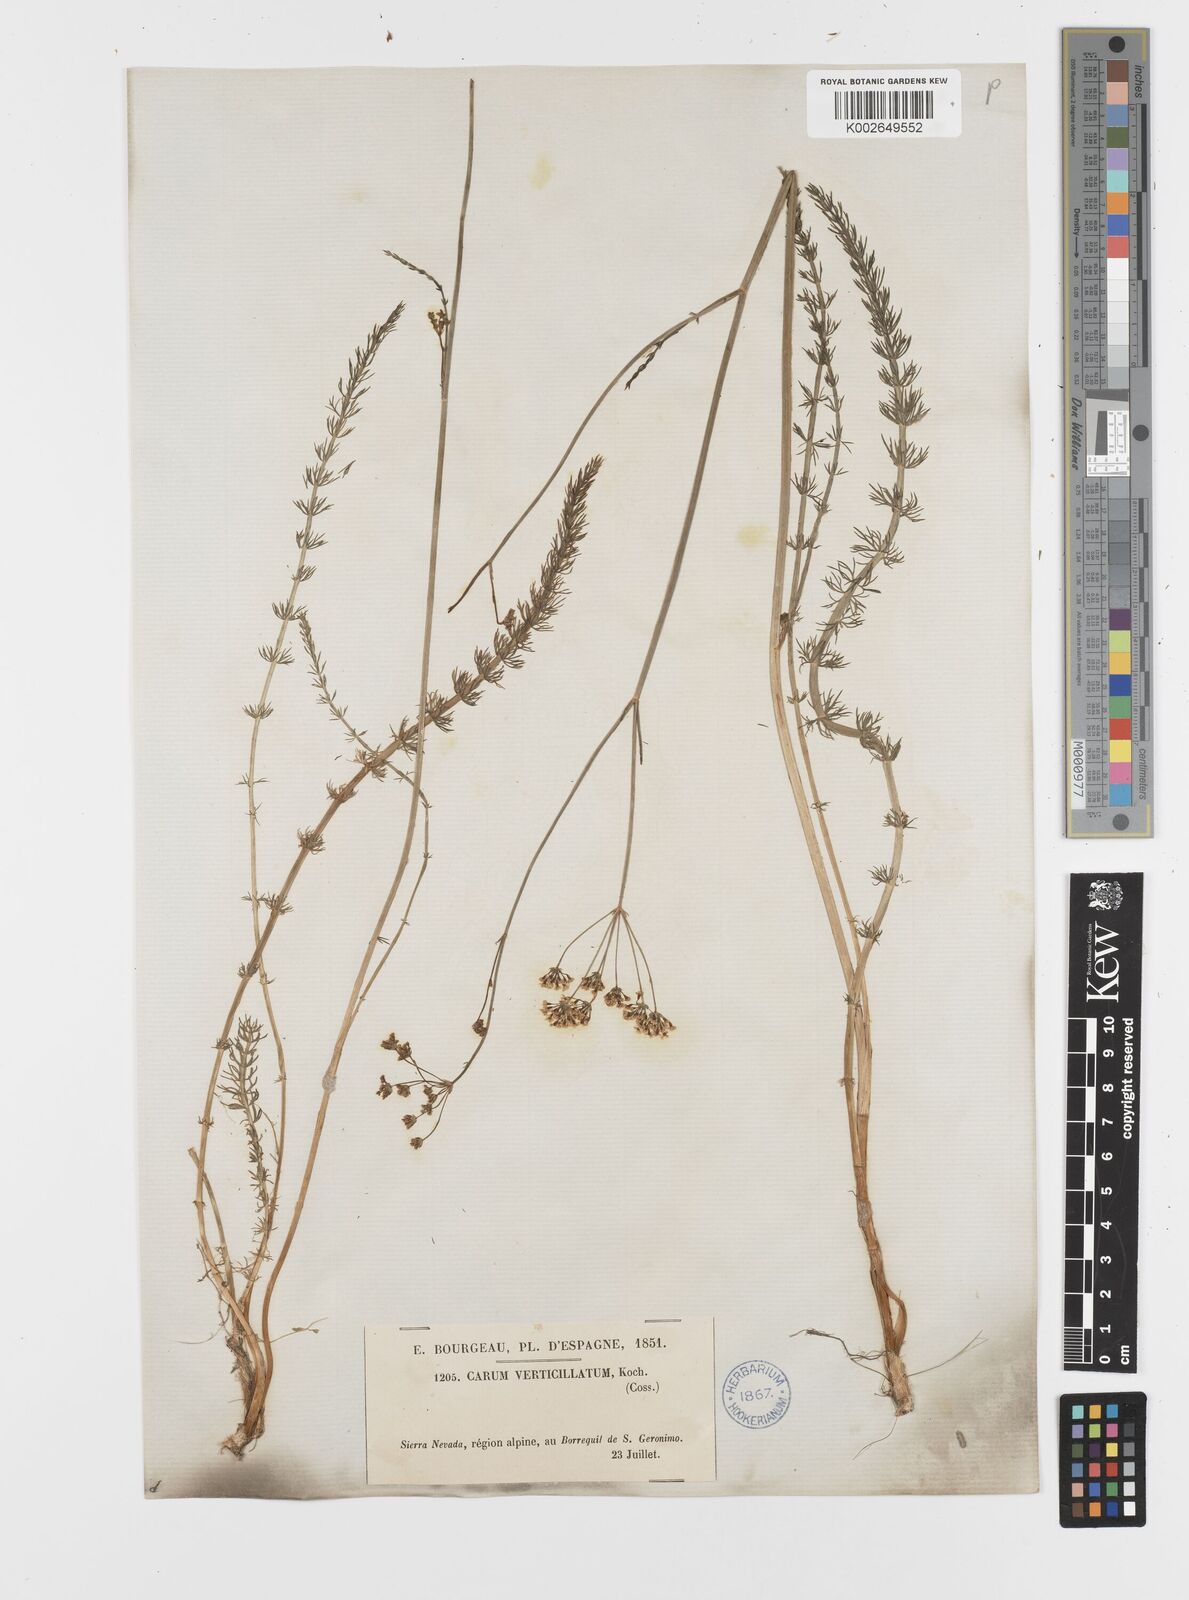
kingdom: Plantae
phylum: Tracheophyta
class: Magnoliopsida
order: Apiales
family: Apiaceae
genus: Trocdaris
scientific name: Trocdaris verticillatum
